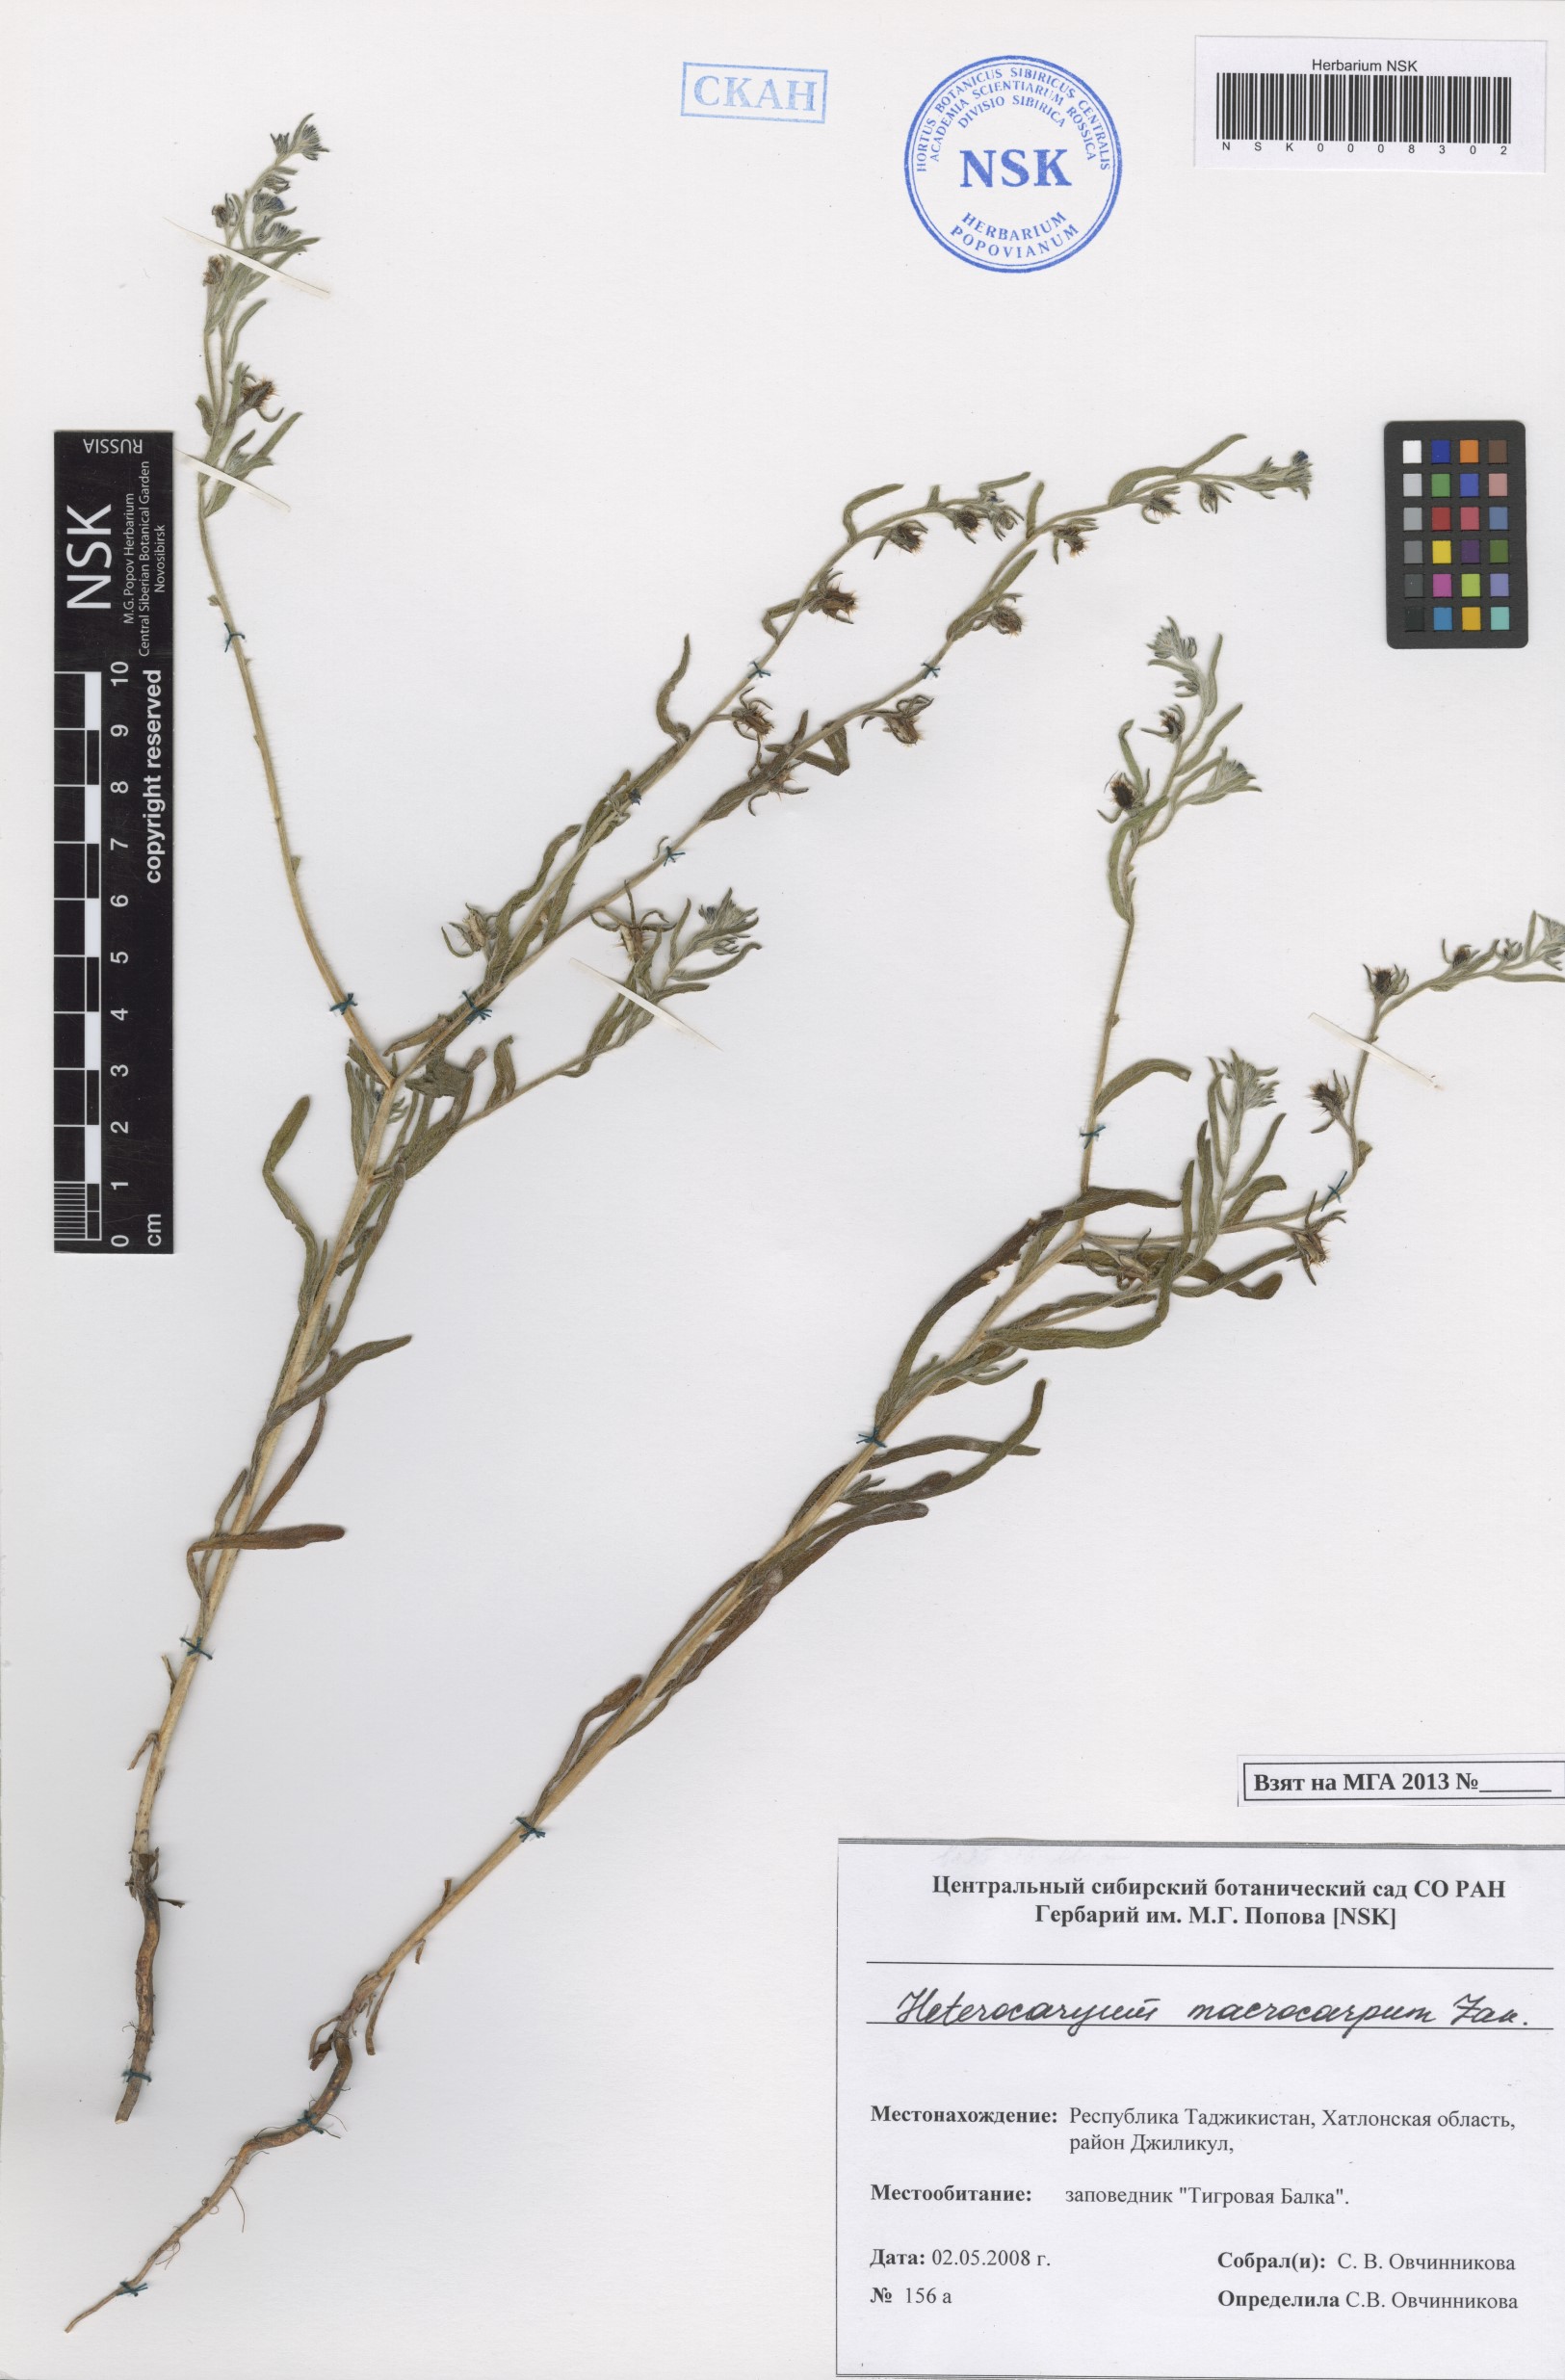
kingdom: Plantae
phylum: Tracheophyta
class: Magnoliopsida
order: Boraginales
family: Boraginaceae
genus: Pseudoheterocaryum
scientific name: Pseudoheterocaryum macrocarpum
